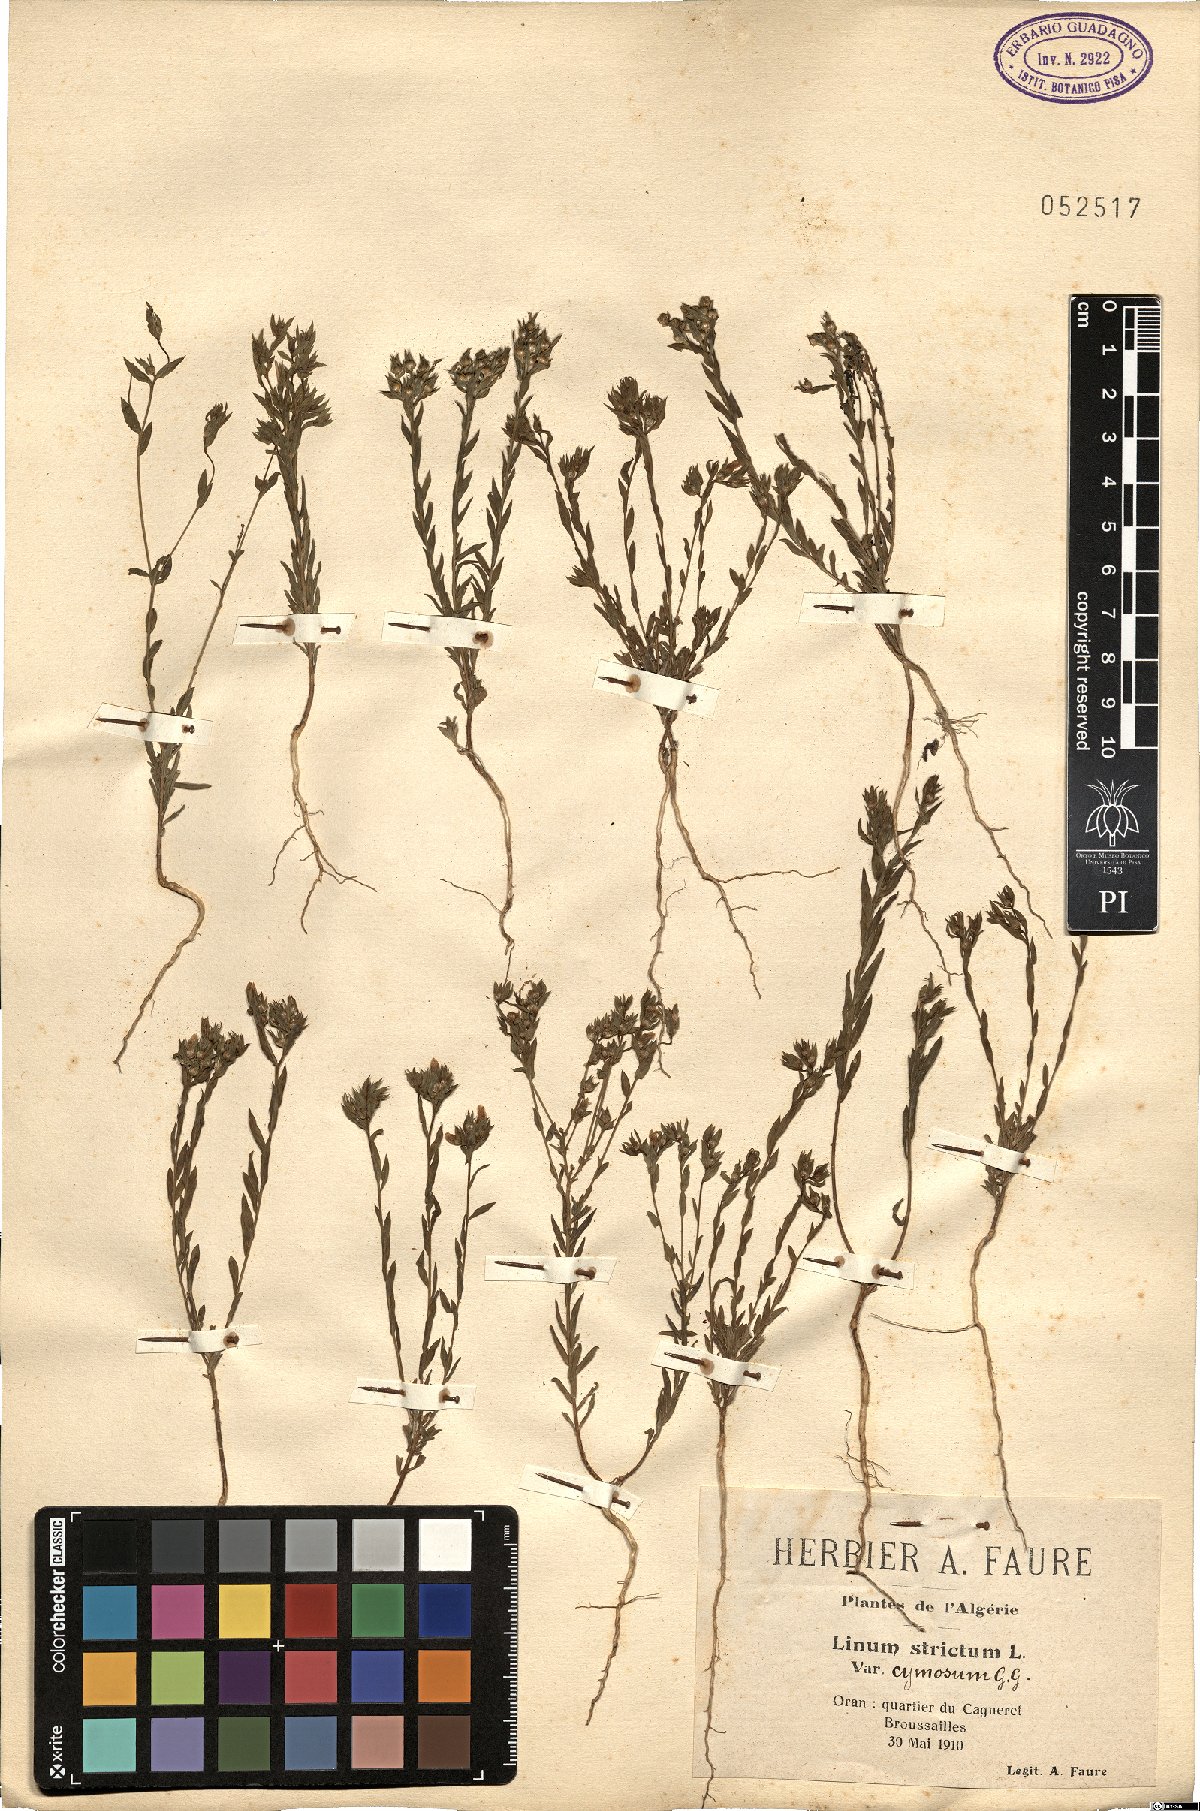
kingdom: Plantae
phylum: Tracheophyta
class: Magnoliopsida
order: Malpighiales
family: Linaceae
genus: Linum
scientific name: Linum strictum
